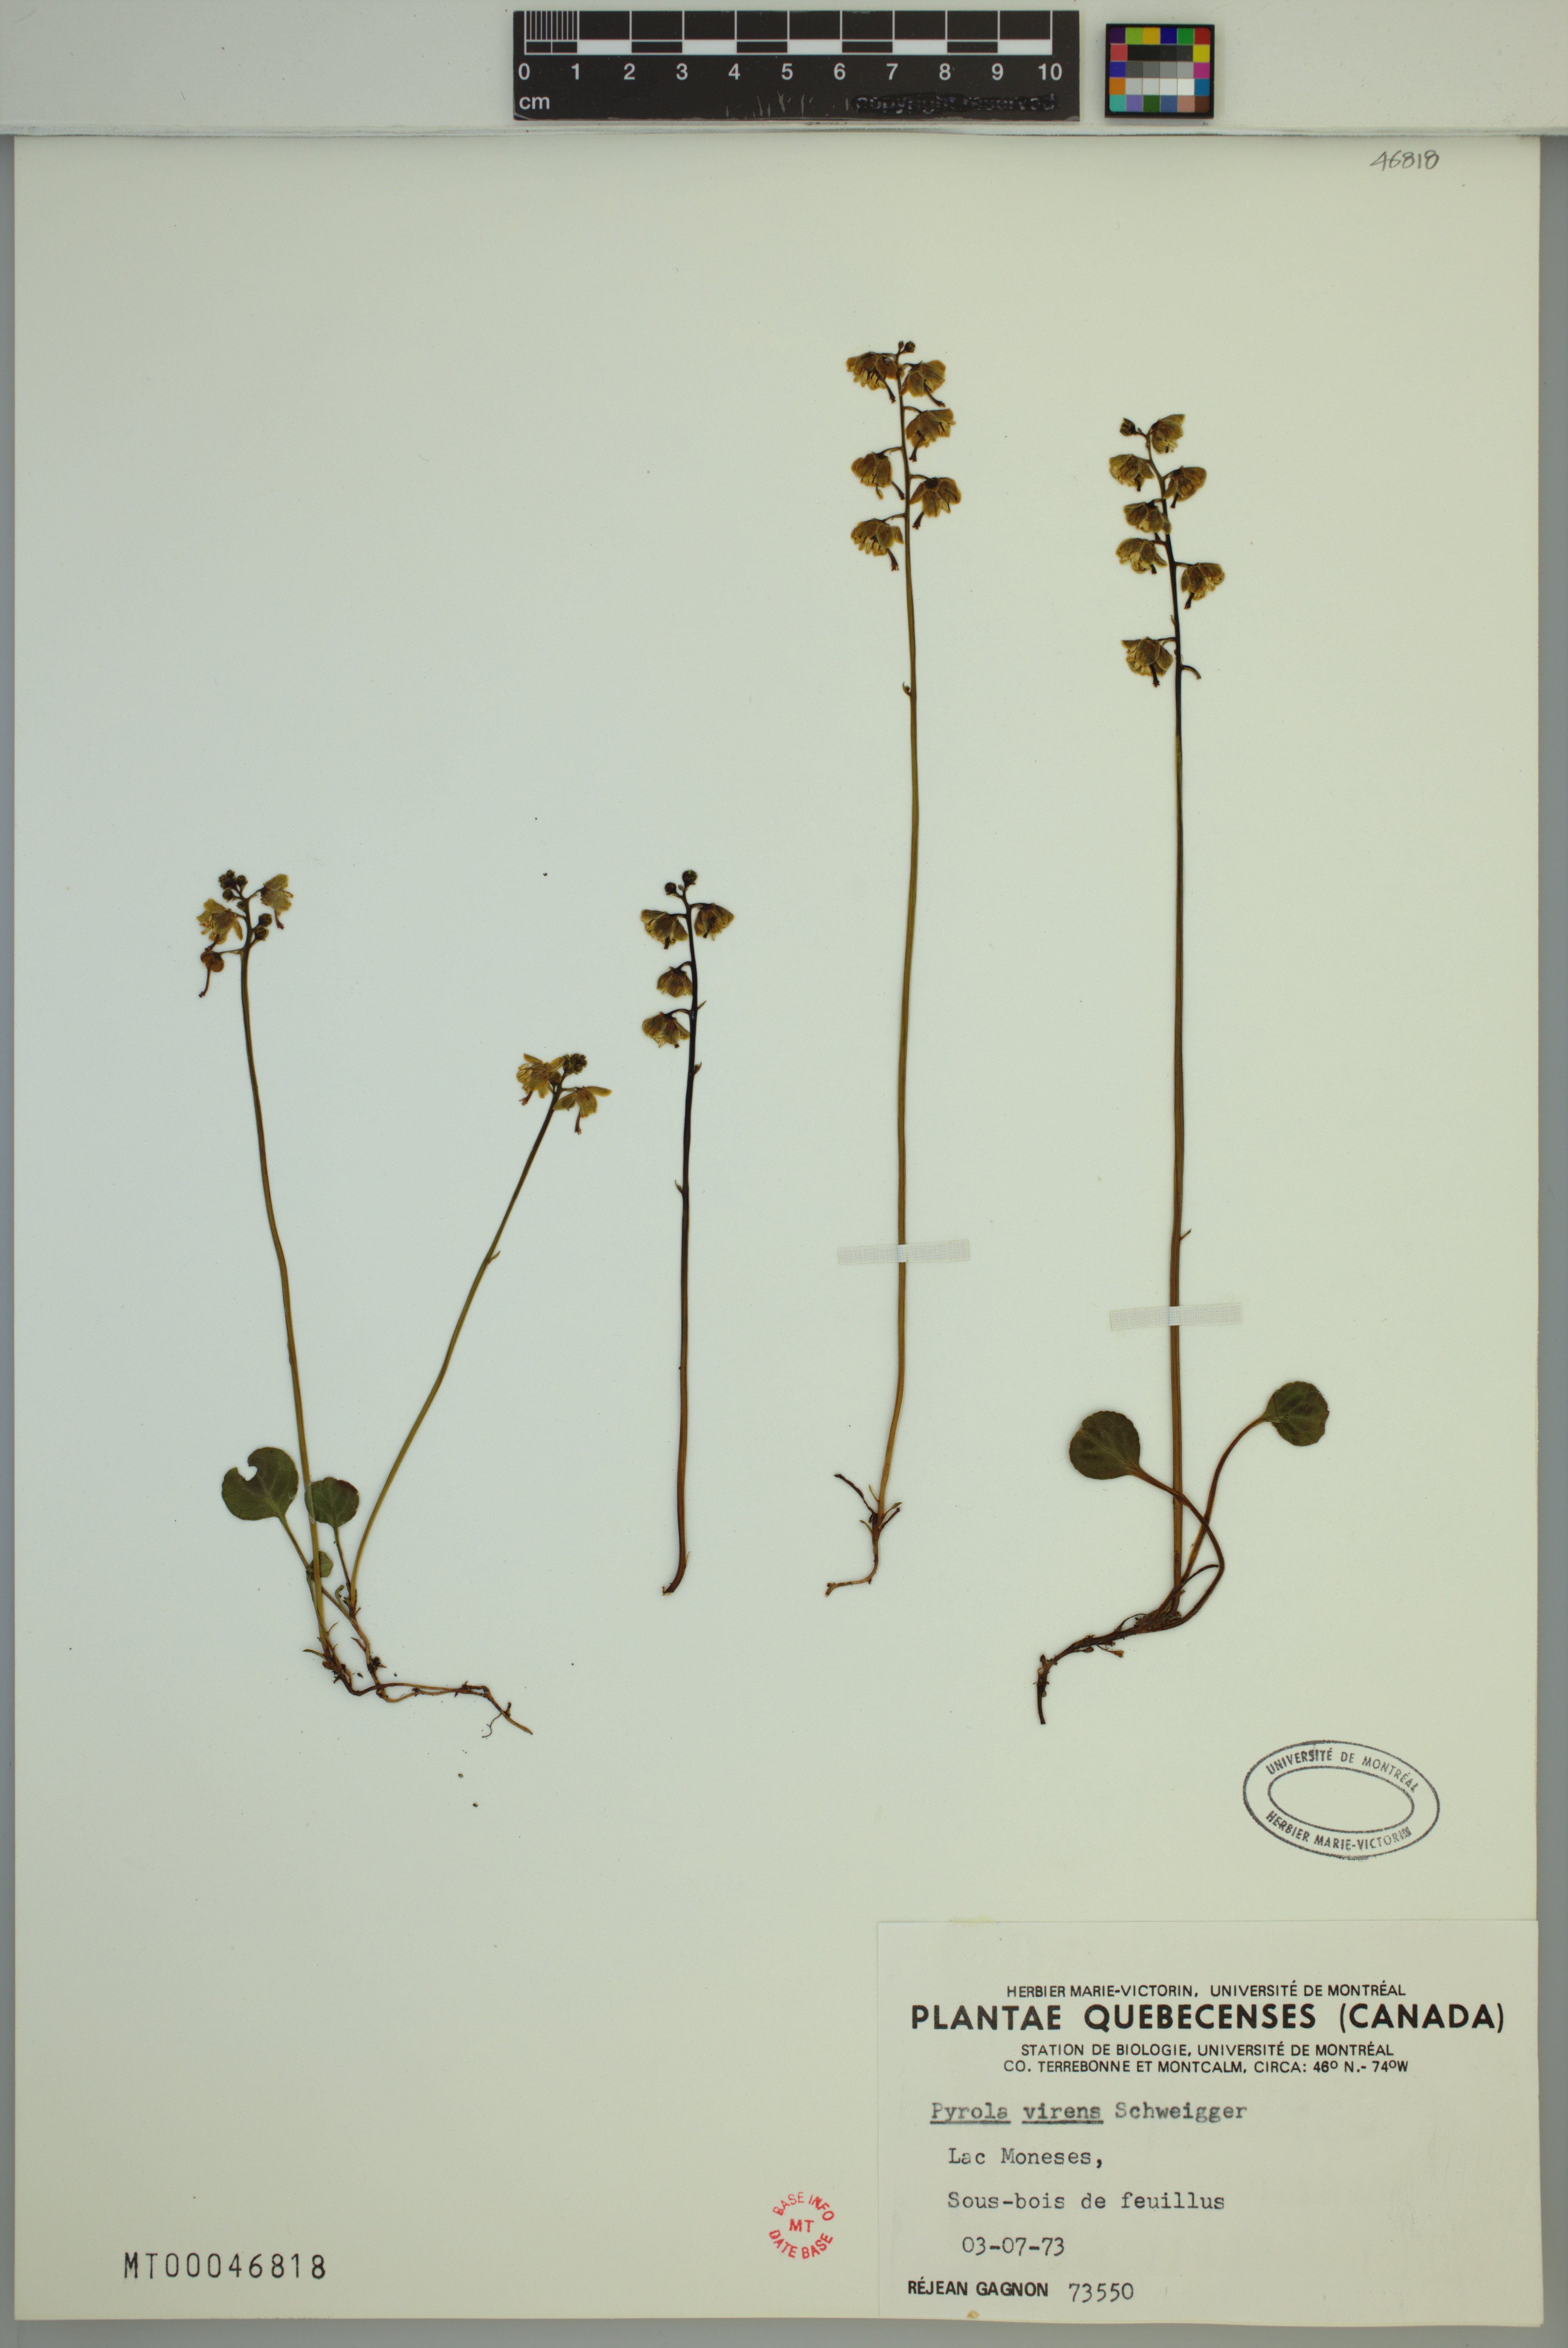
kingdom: Plantae
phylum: Tracheophyta
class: Magnoliopsida
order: Ericales
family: Ericaceae
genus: Pyrola
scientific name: Pyrola chlorantha
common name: Green wintergreen
